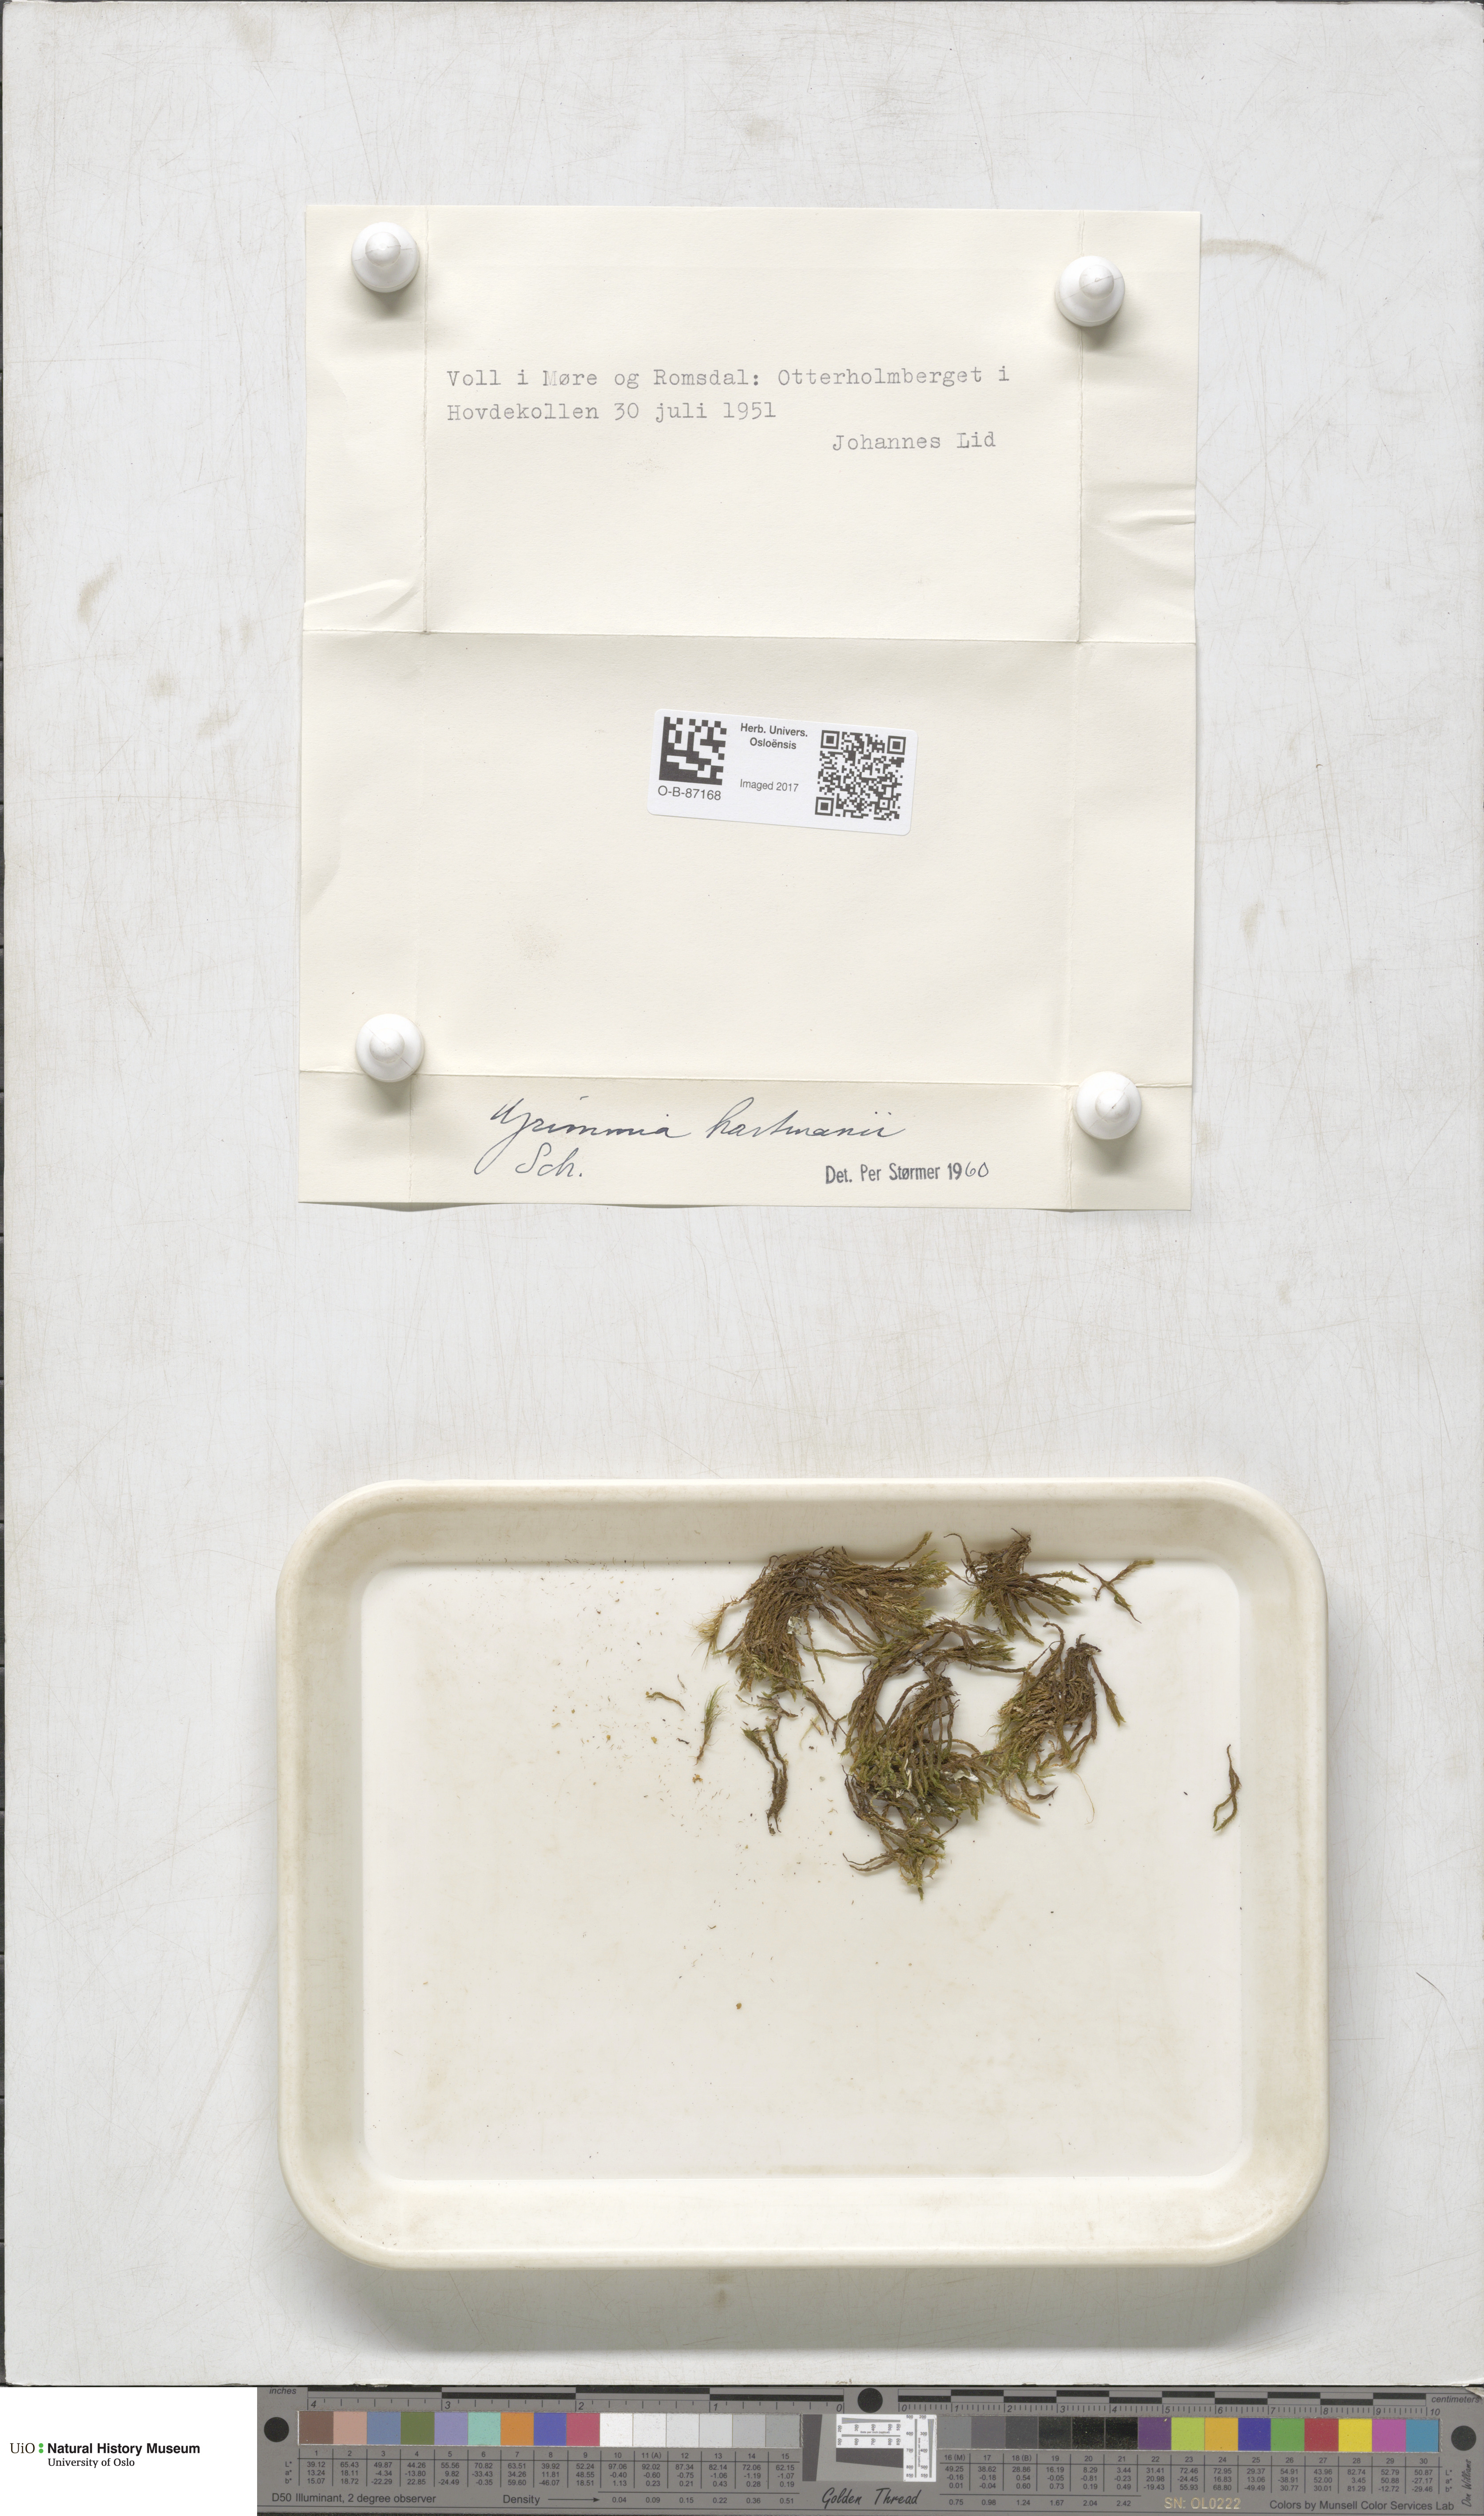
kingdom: Plantae
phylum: Bryophyta
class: Bryopsida
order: Grimmiales
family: Grimmiaceae
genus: Grimmia
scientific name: Grimmia hartmanii
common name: Hartman's grimmia
